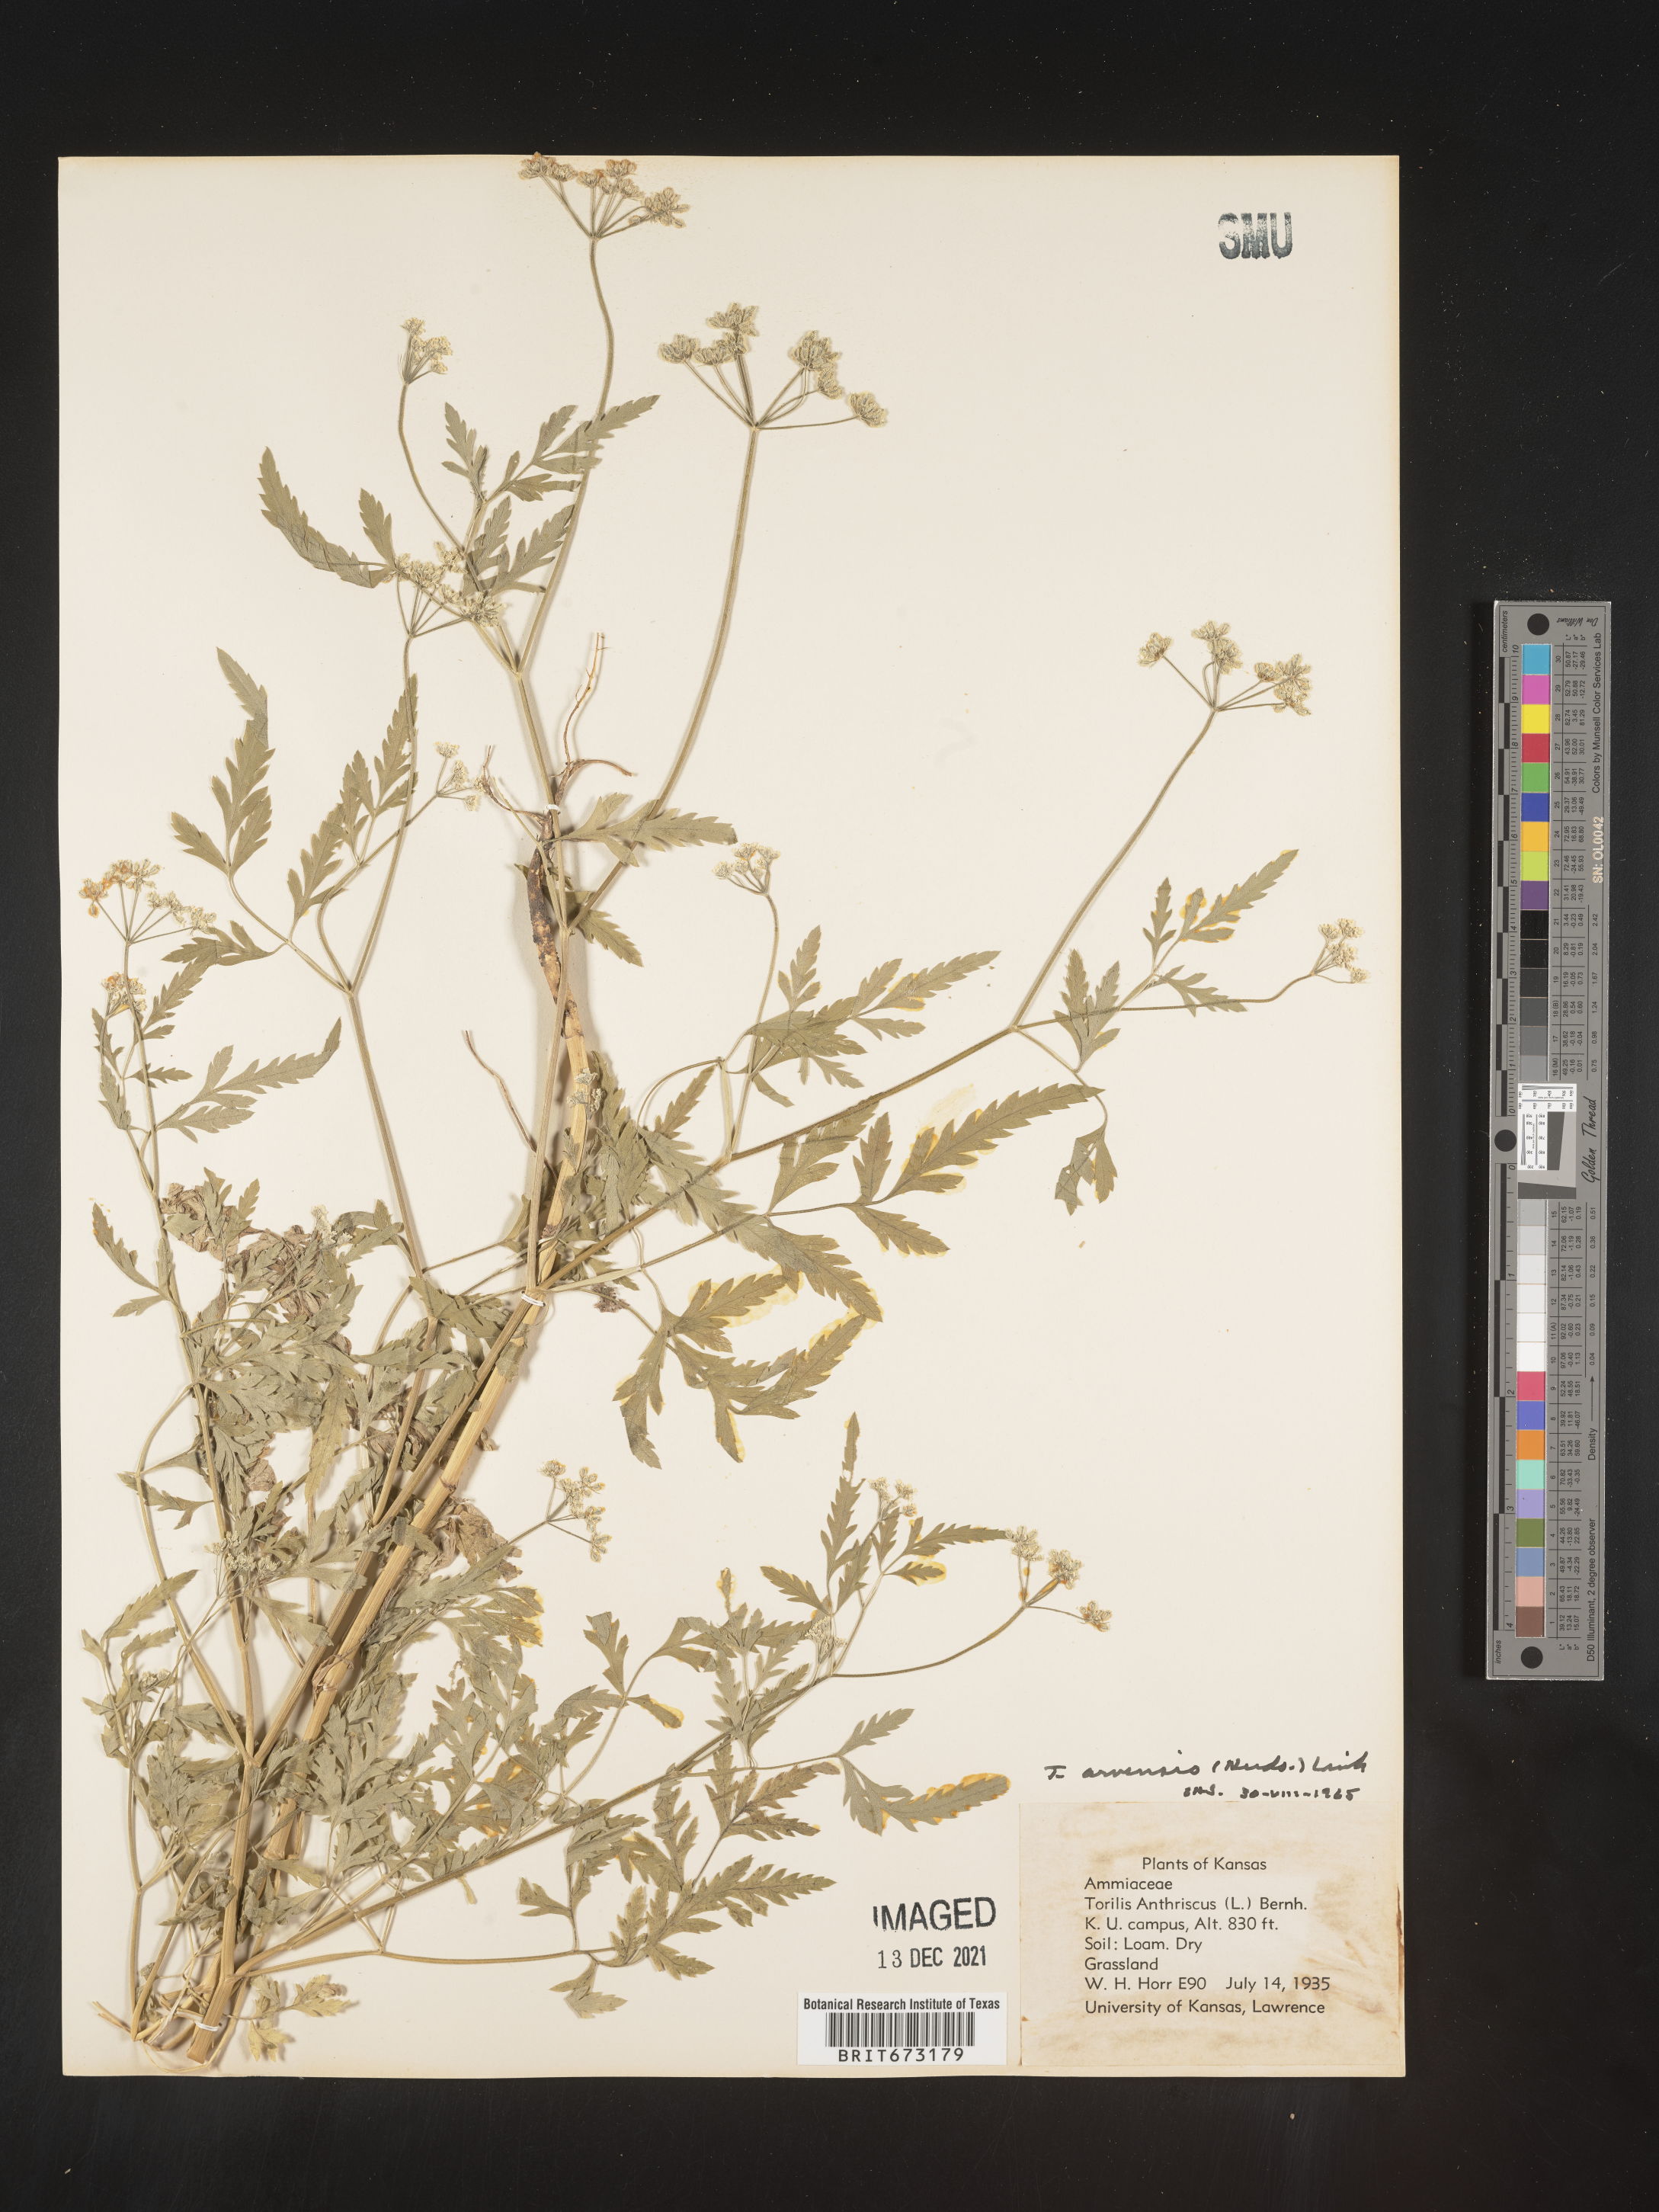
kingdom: Plantae
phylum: Tracheophyta
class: Magnoliopsida
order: Apiales
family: Apiaceae
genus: Torilis
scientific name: Torilis arvensis
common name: Spreading hedge-parsley
